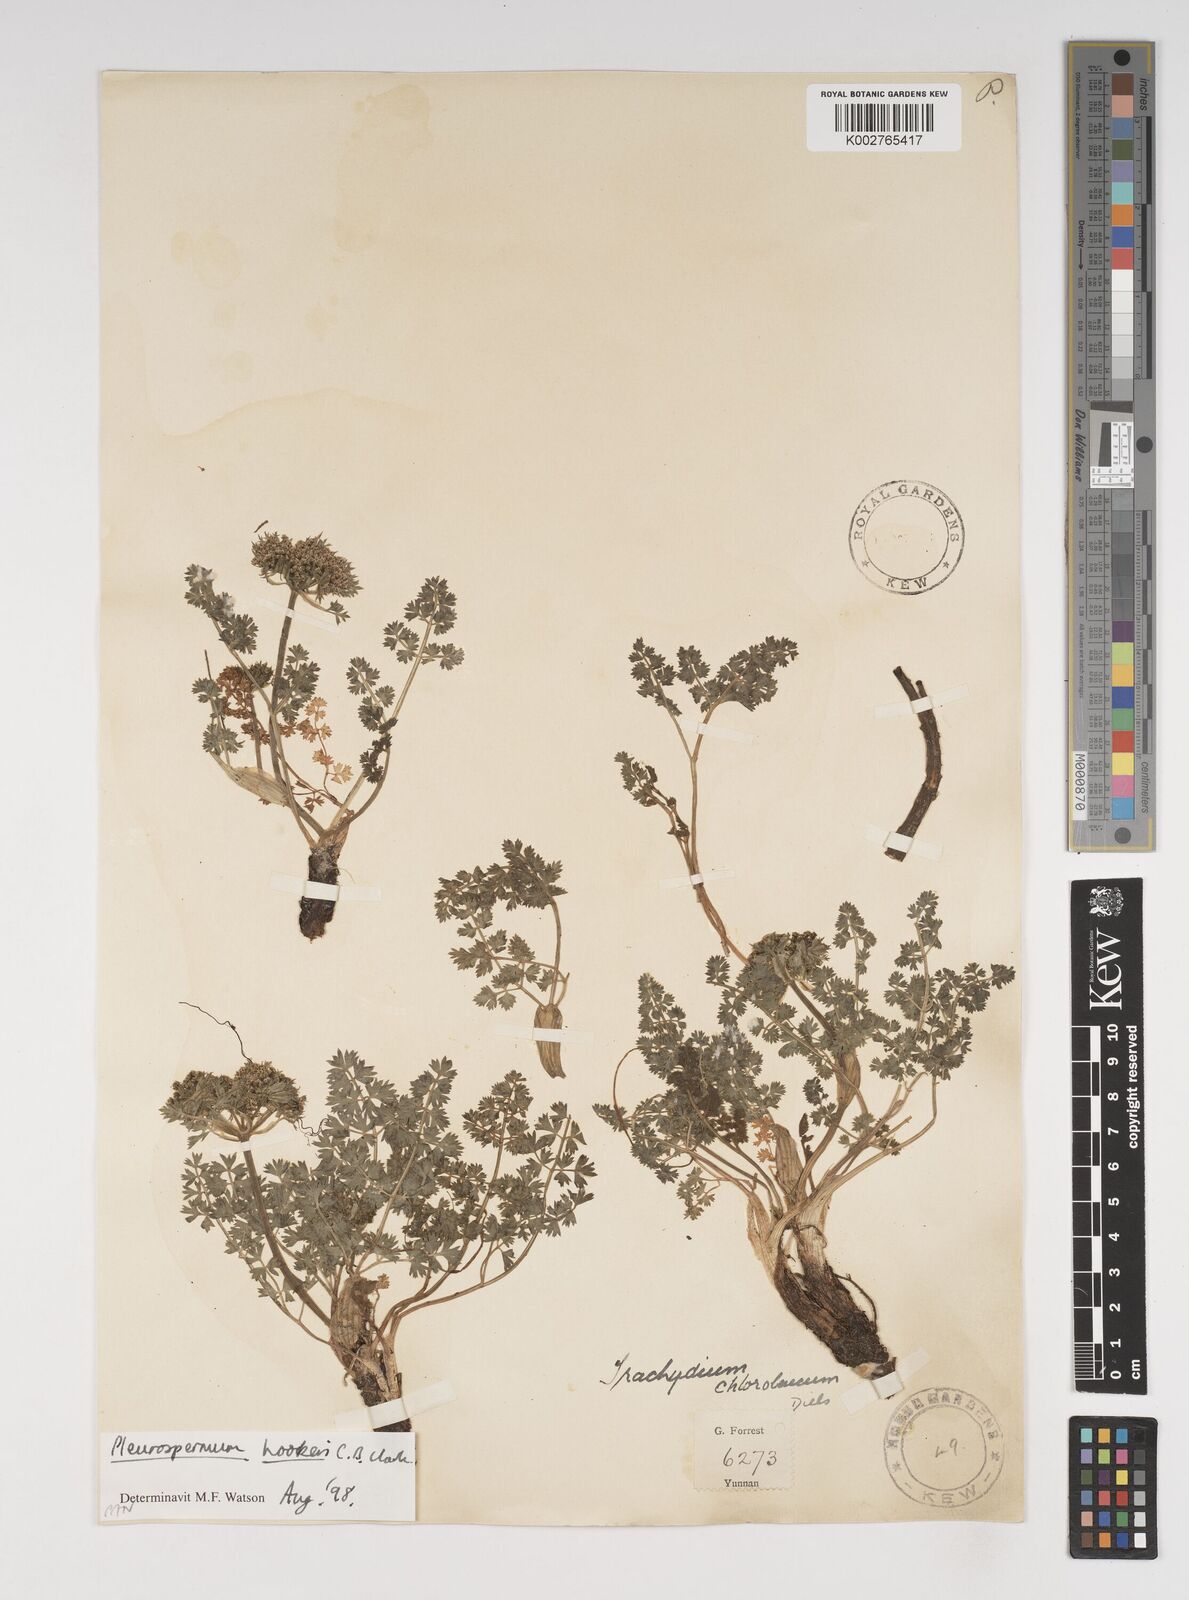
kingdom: Plantae
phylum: Tracheophyta
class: Magnoliopsida
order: Apiales
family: Apiaceae
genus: Pleurospermum
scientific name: Pleurospermum hookeri
